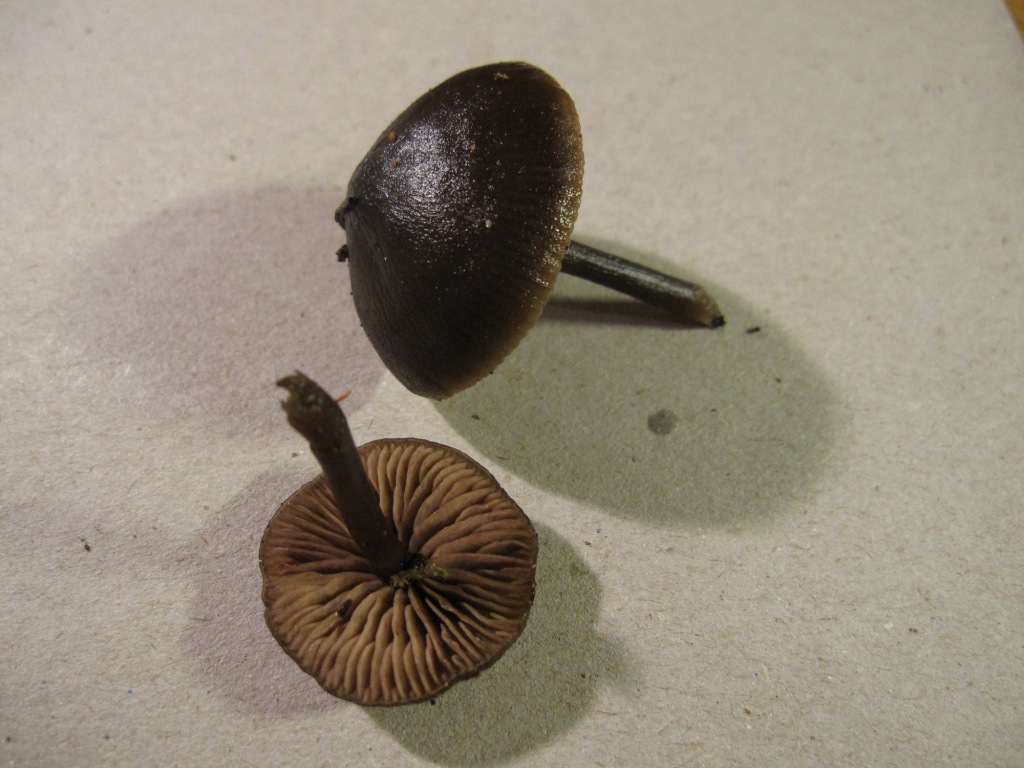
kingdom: Fungi
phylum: Basidiomycota
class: Agaricomycetes
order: Agaricales
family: Entolomataceae
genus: Entoloma
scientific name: Entoloma vindobonense
